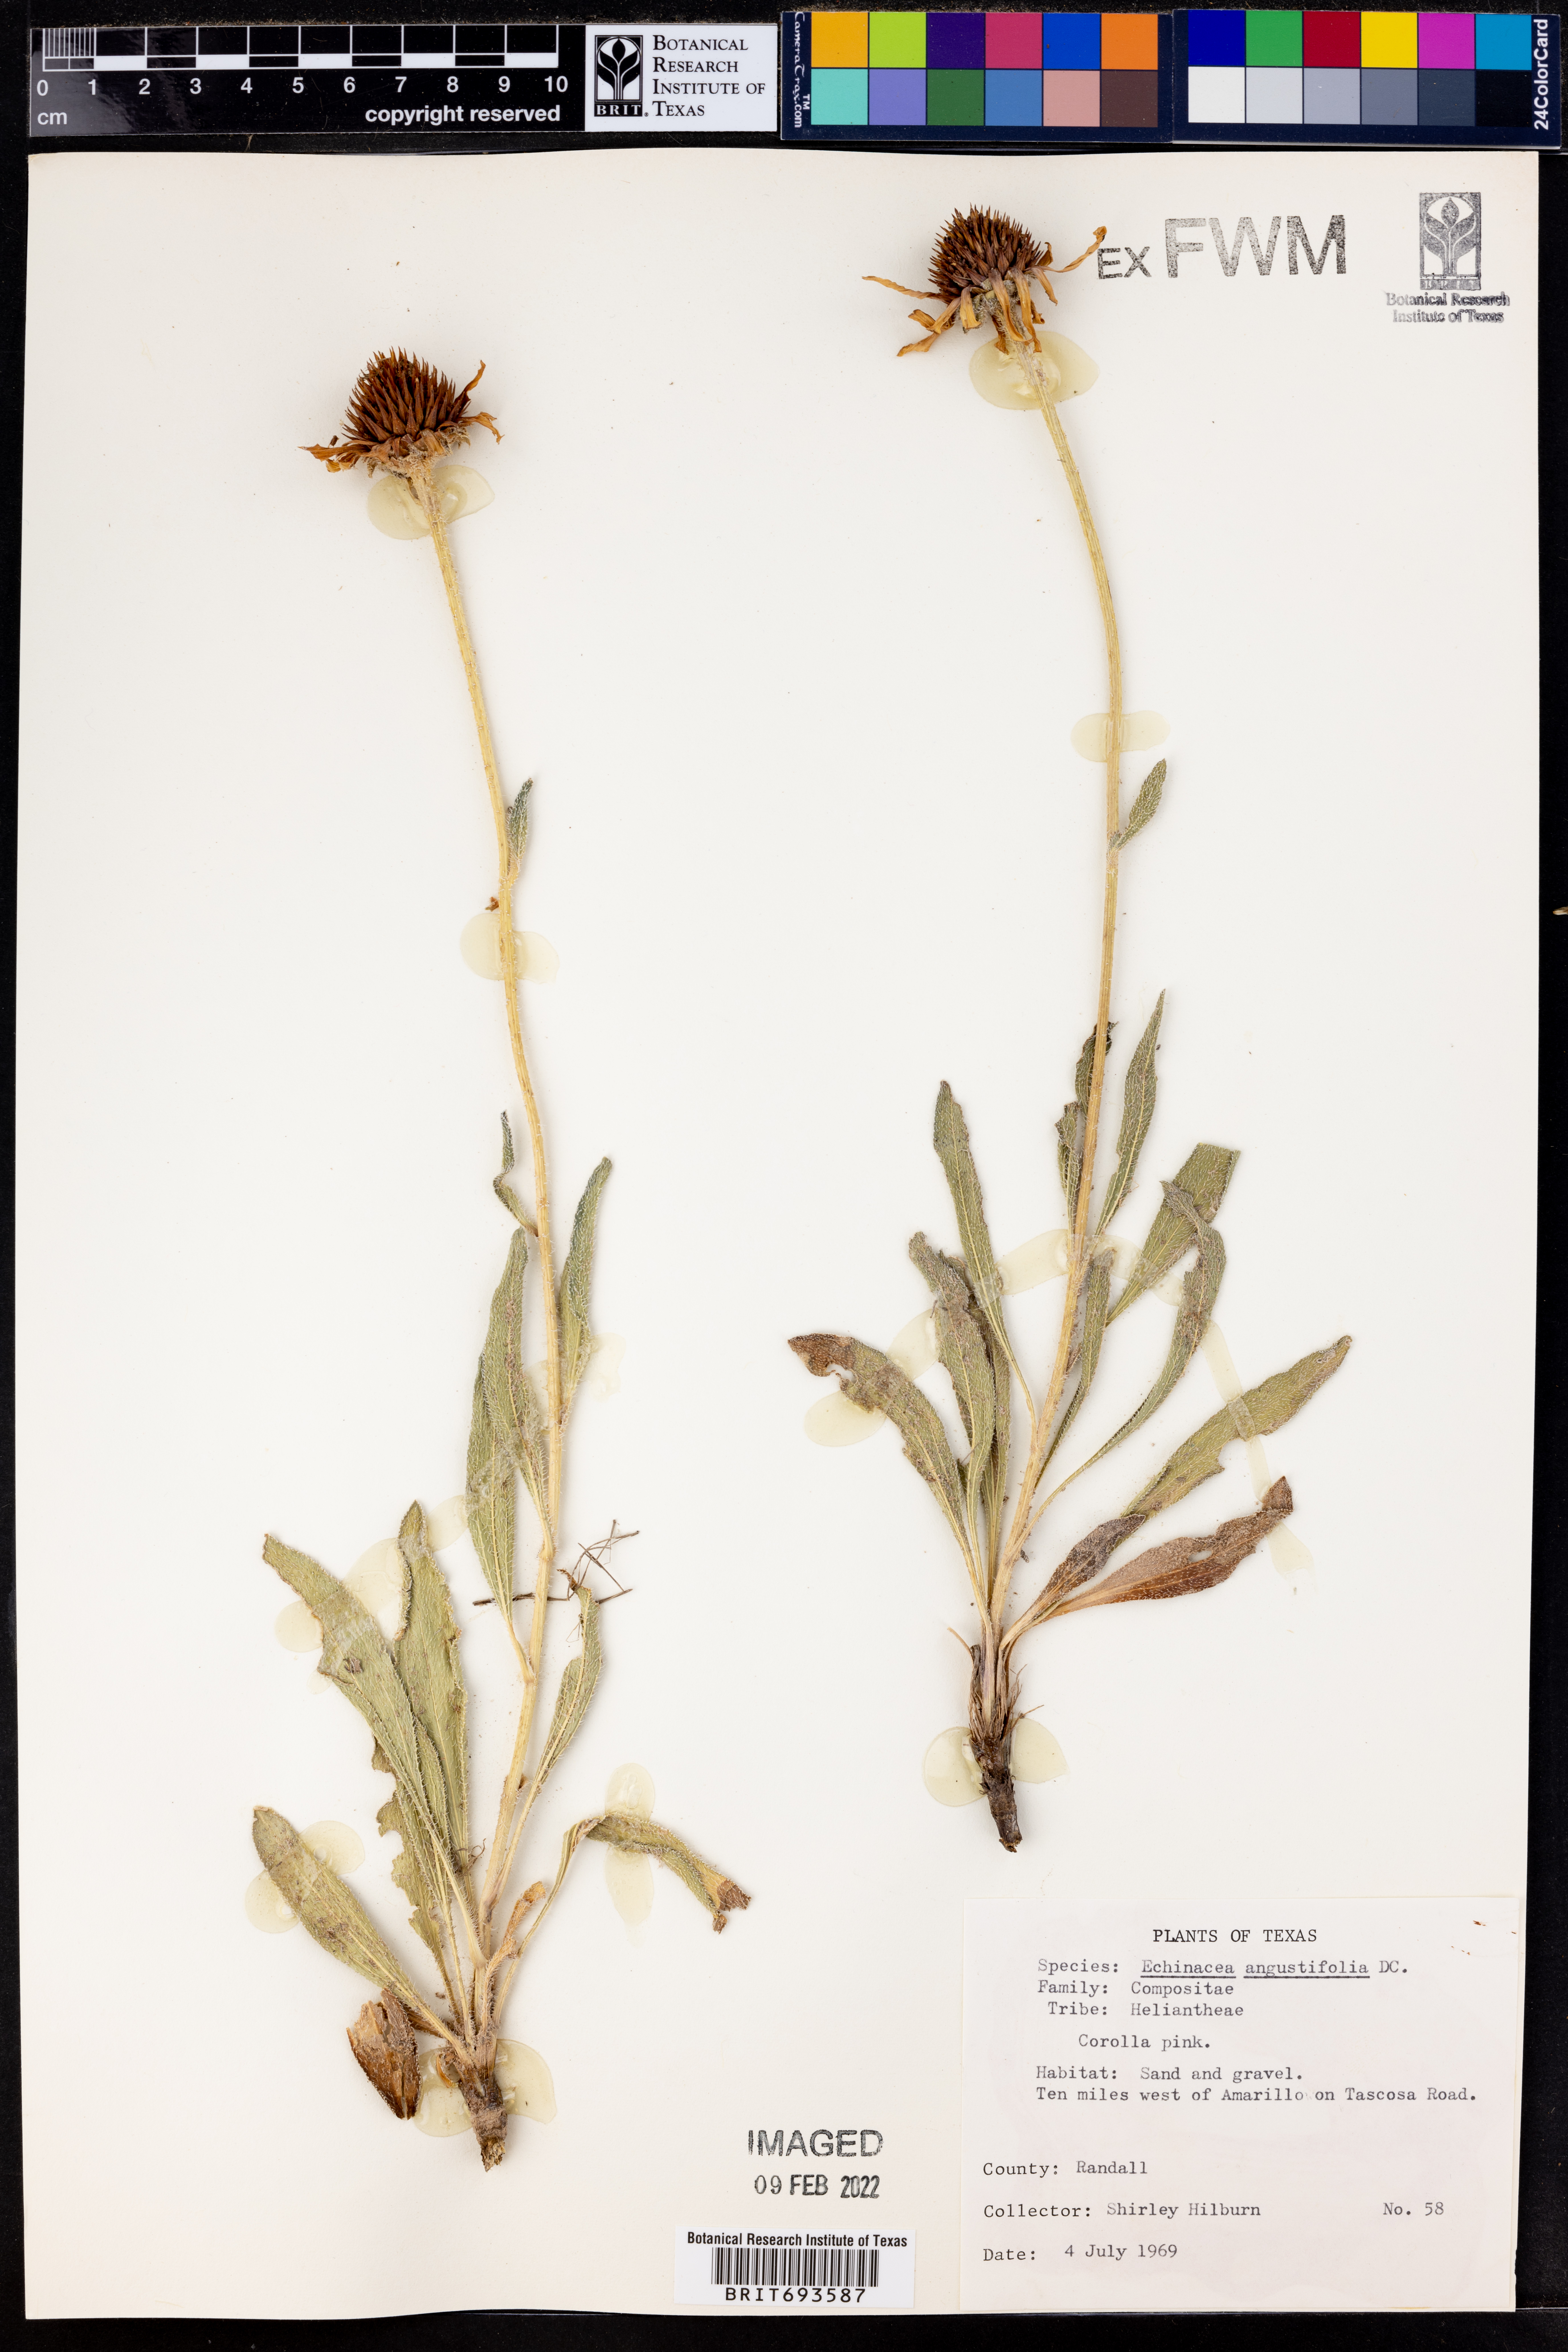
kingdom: Plantae
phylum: Tracheophyta
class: Magnoliopsida
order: Asterales
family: Asteraceae
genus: Echinacea
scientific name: Echinacea angustifolia
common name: Black-sampson echinacea
